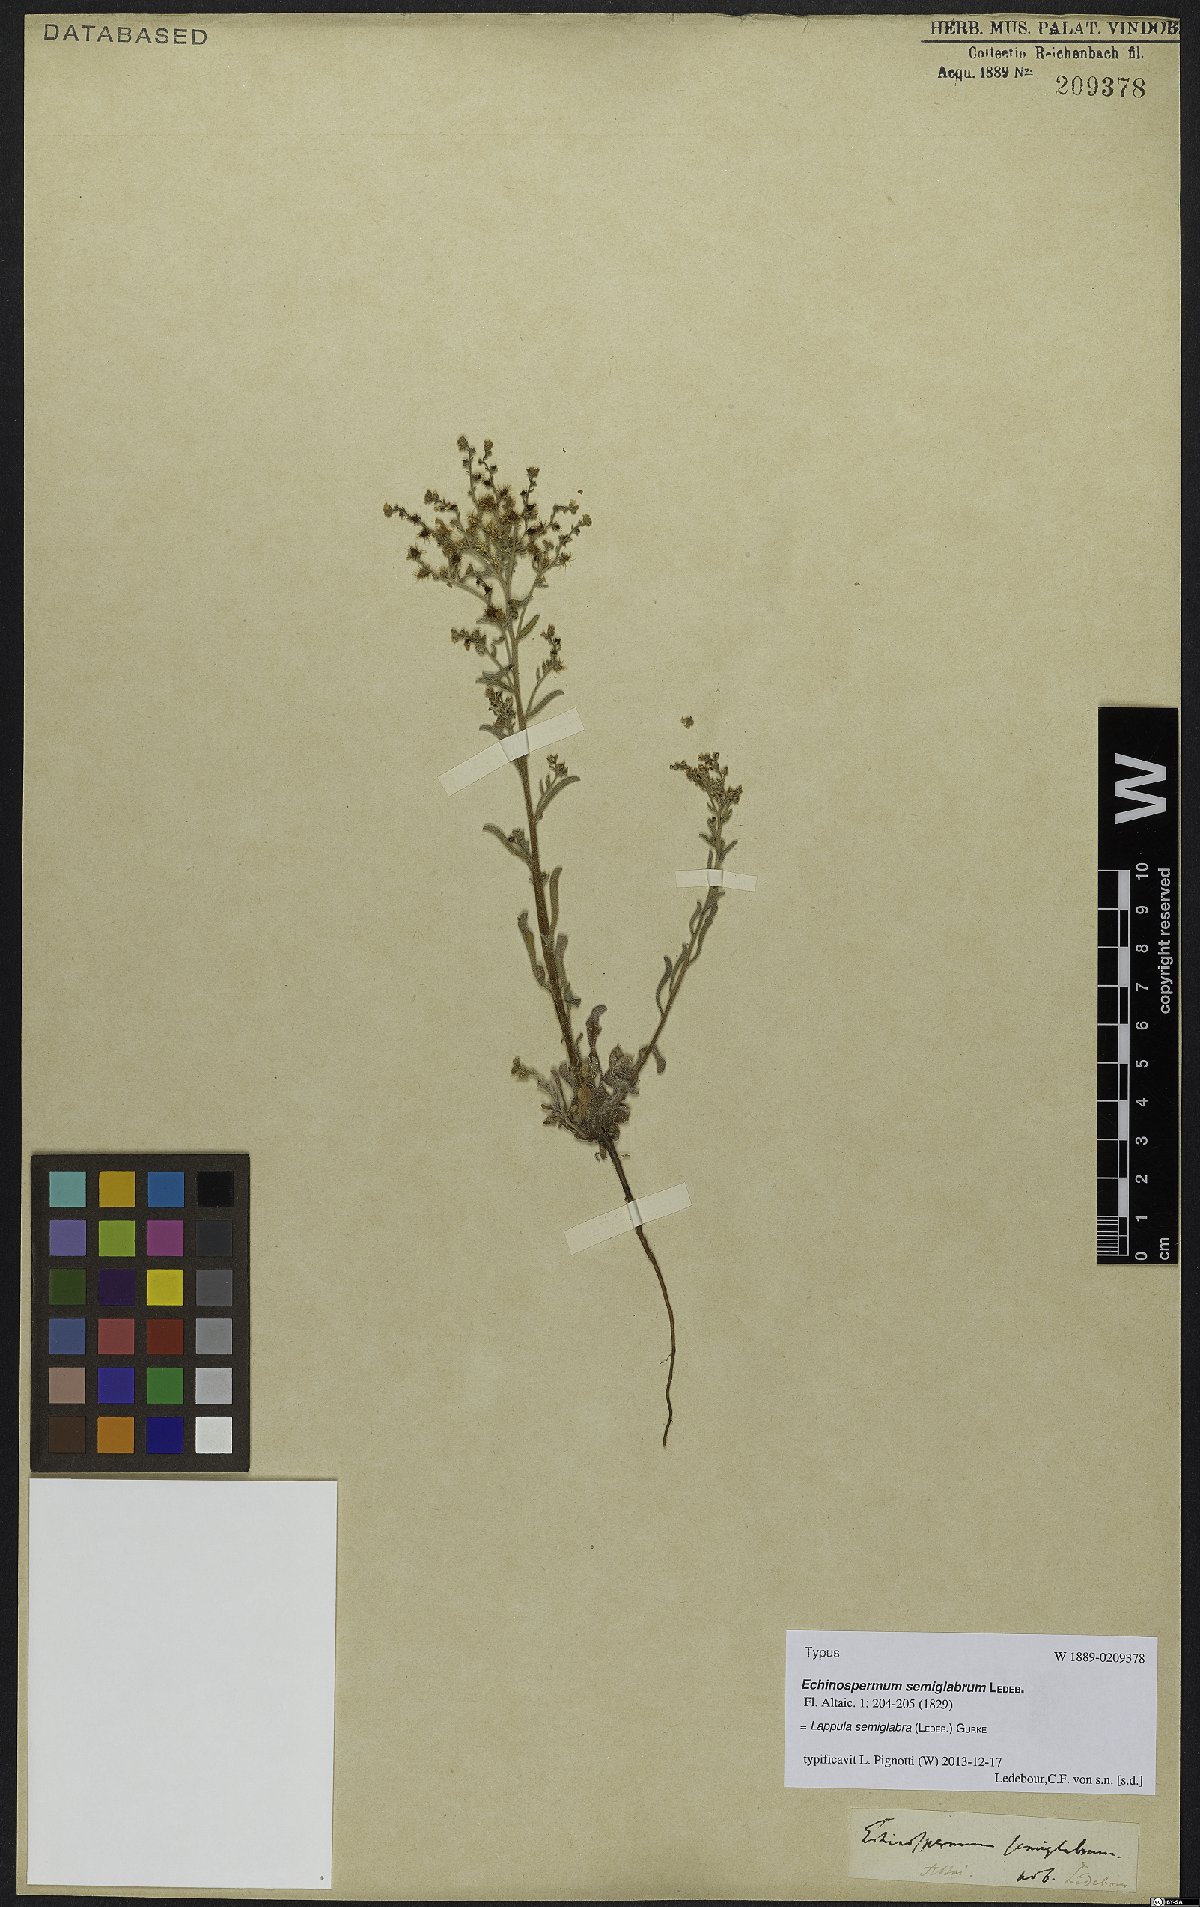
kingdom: Plantae
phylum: Tracheophyta
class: Magnoliopsida
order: Boraginales
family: Boraginaceae
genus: Lappula
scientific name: Lappula patula
